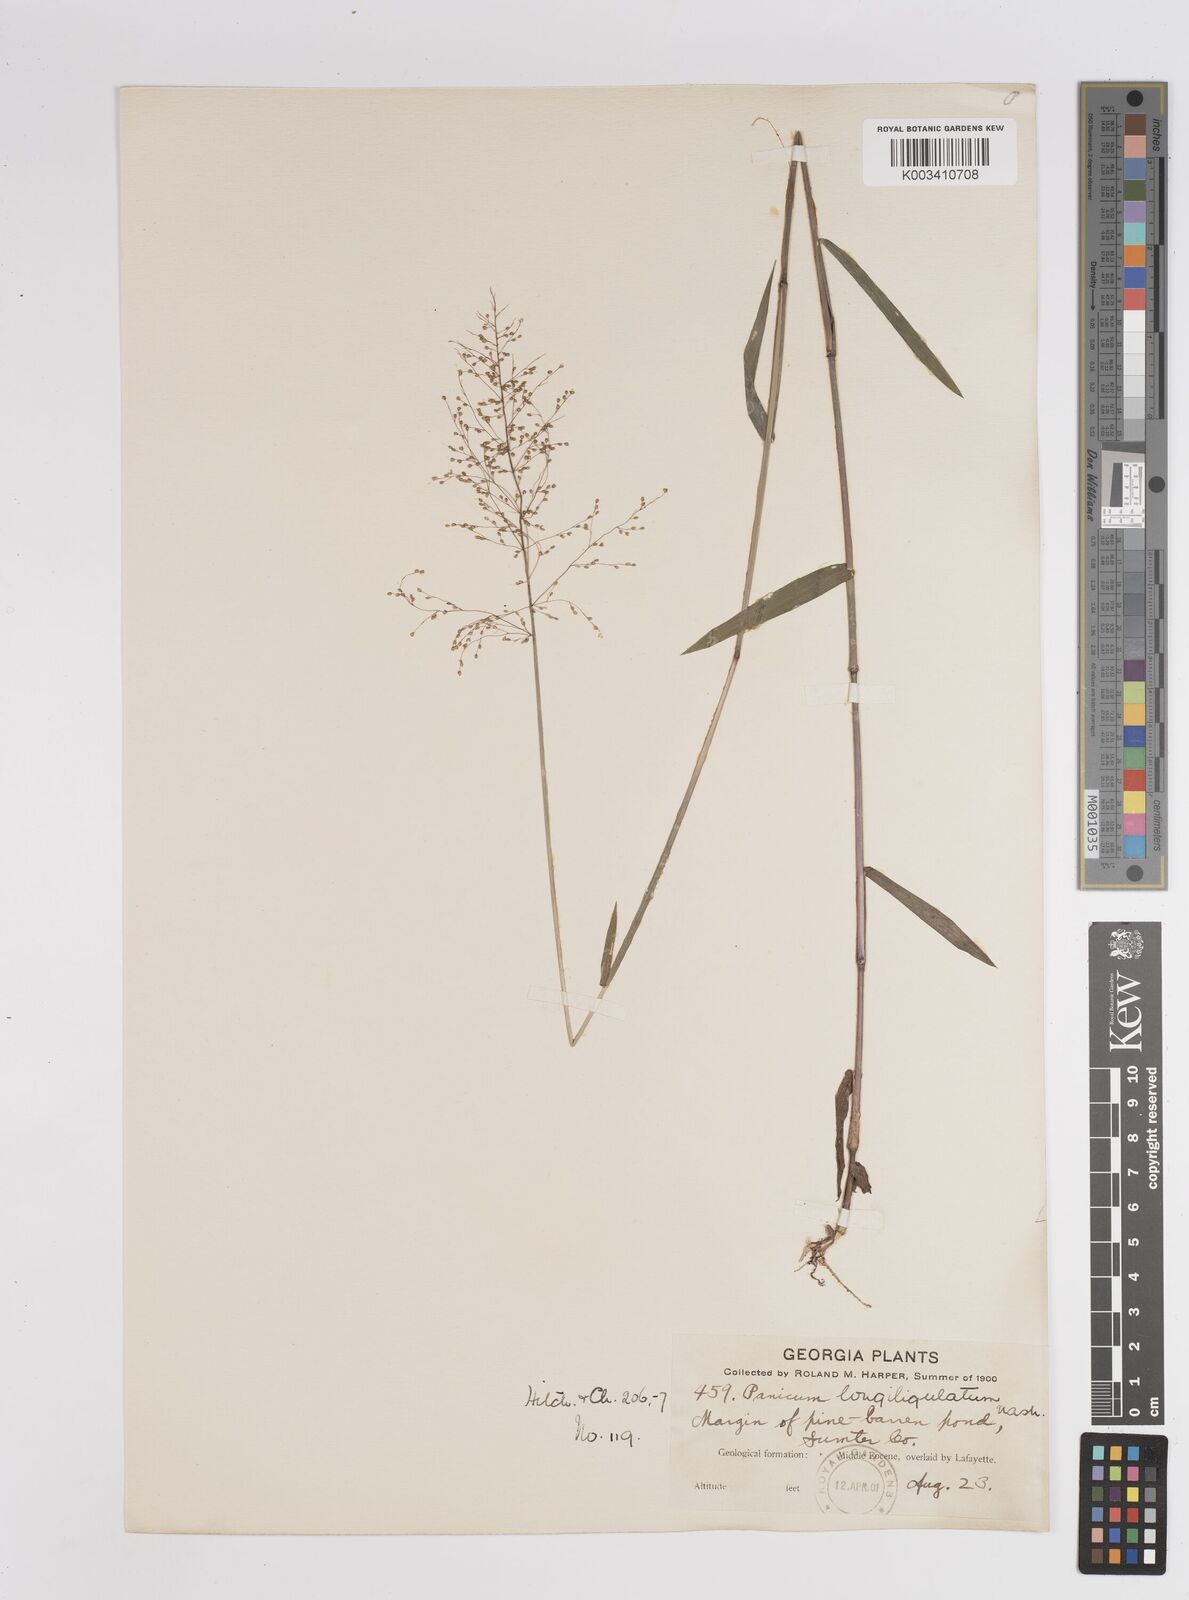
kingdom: Plantae
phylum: Tracheophyta
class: Liliopsida
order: Poales
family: Poaceae
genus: Dichanthelium
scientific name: Dichanthelium longiligulatum
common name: Long-ligule panicgrass
